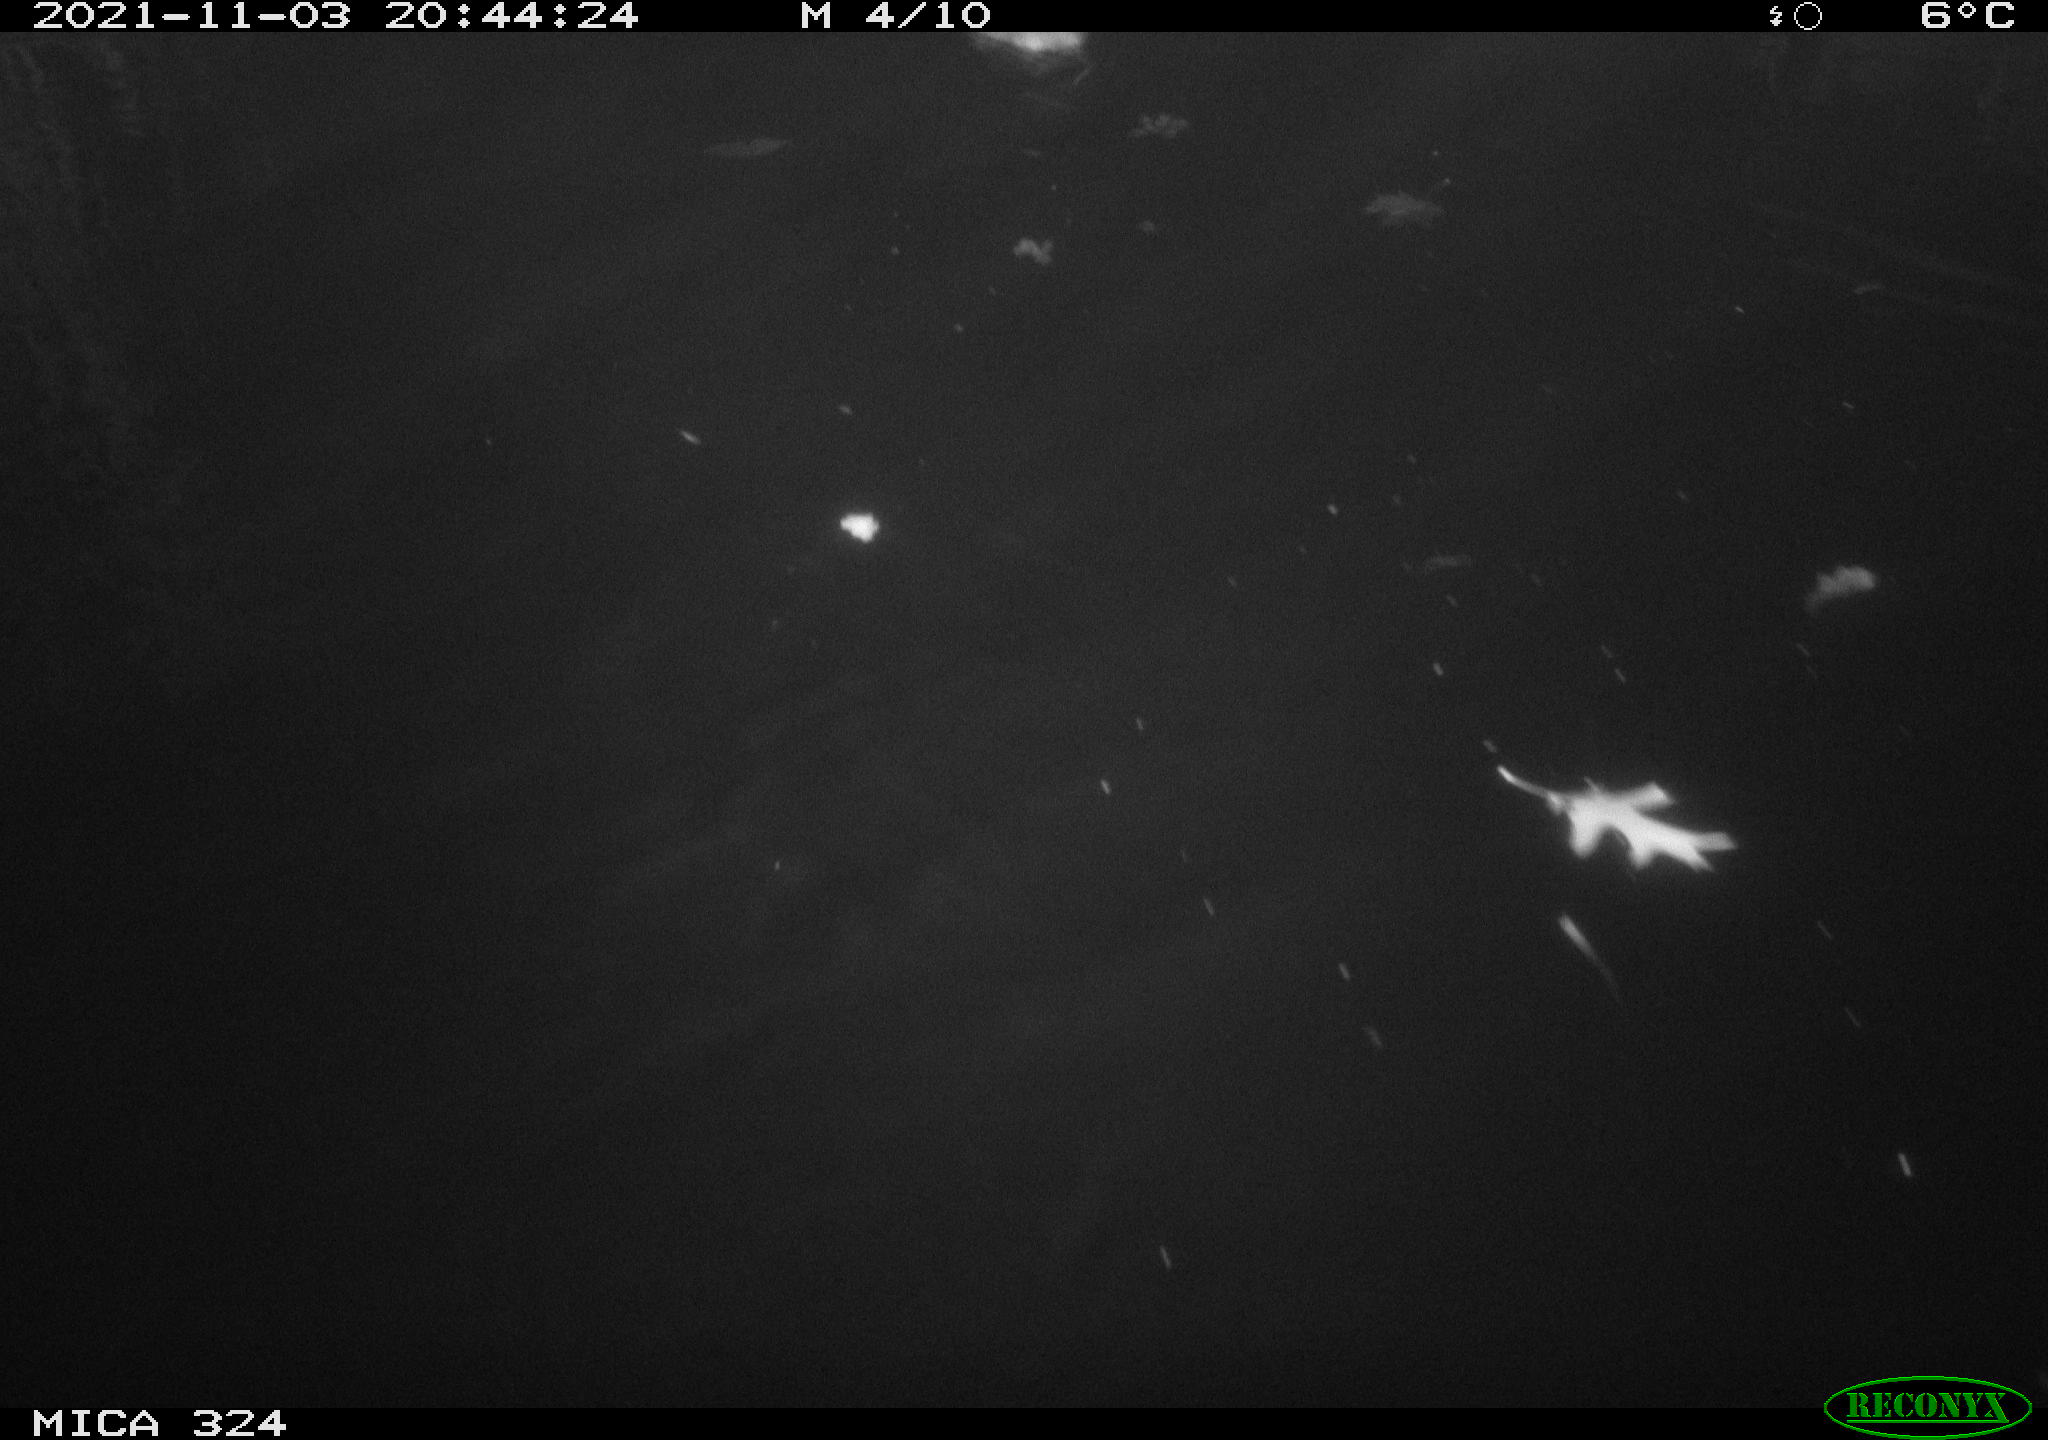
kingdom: Animalia
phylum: Chordata
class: Mammalia
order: Rodentia
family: Cricetidae
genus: Ondatra
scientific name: Ondatra zibethicus
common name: Muskrat
